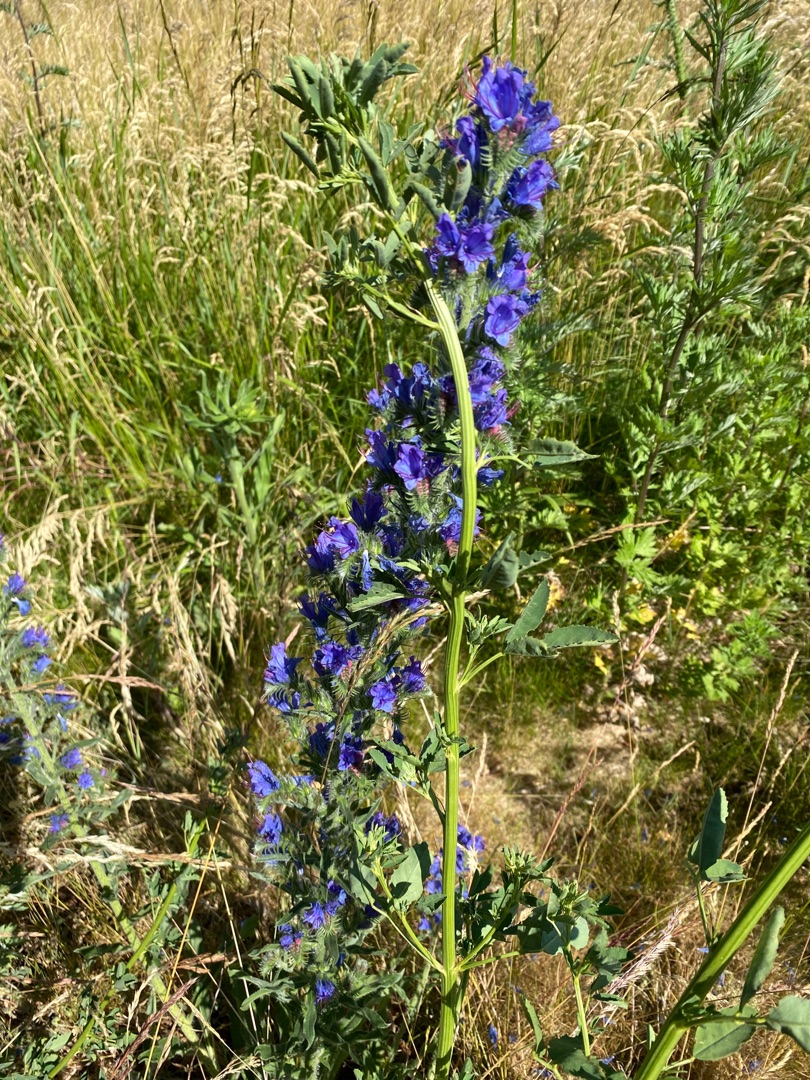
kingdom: Plantae
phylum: Tracheophyta
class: Magnoliopsida
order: Boraginales
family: Boraginaceae
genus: Echium
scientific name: Echium vulgare
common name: Slangehoved
